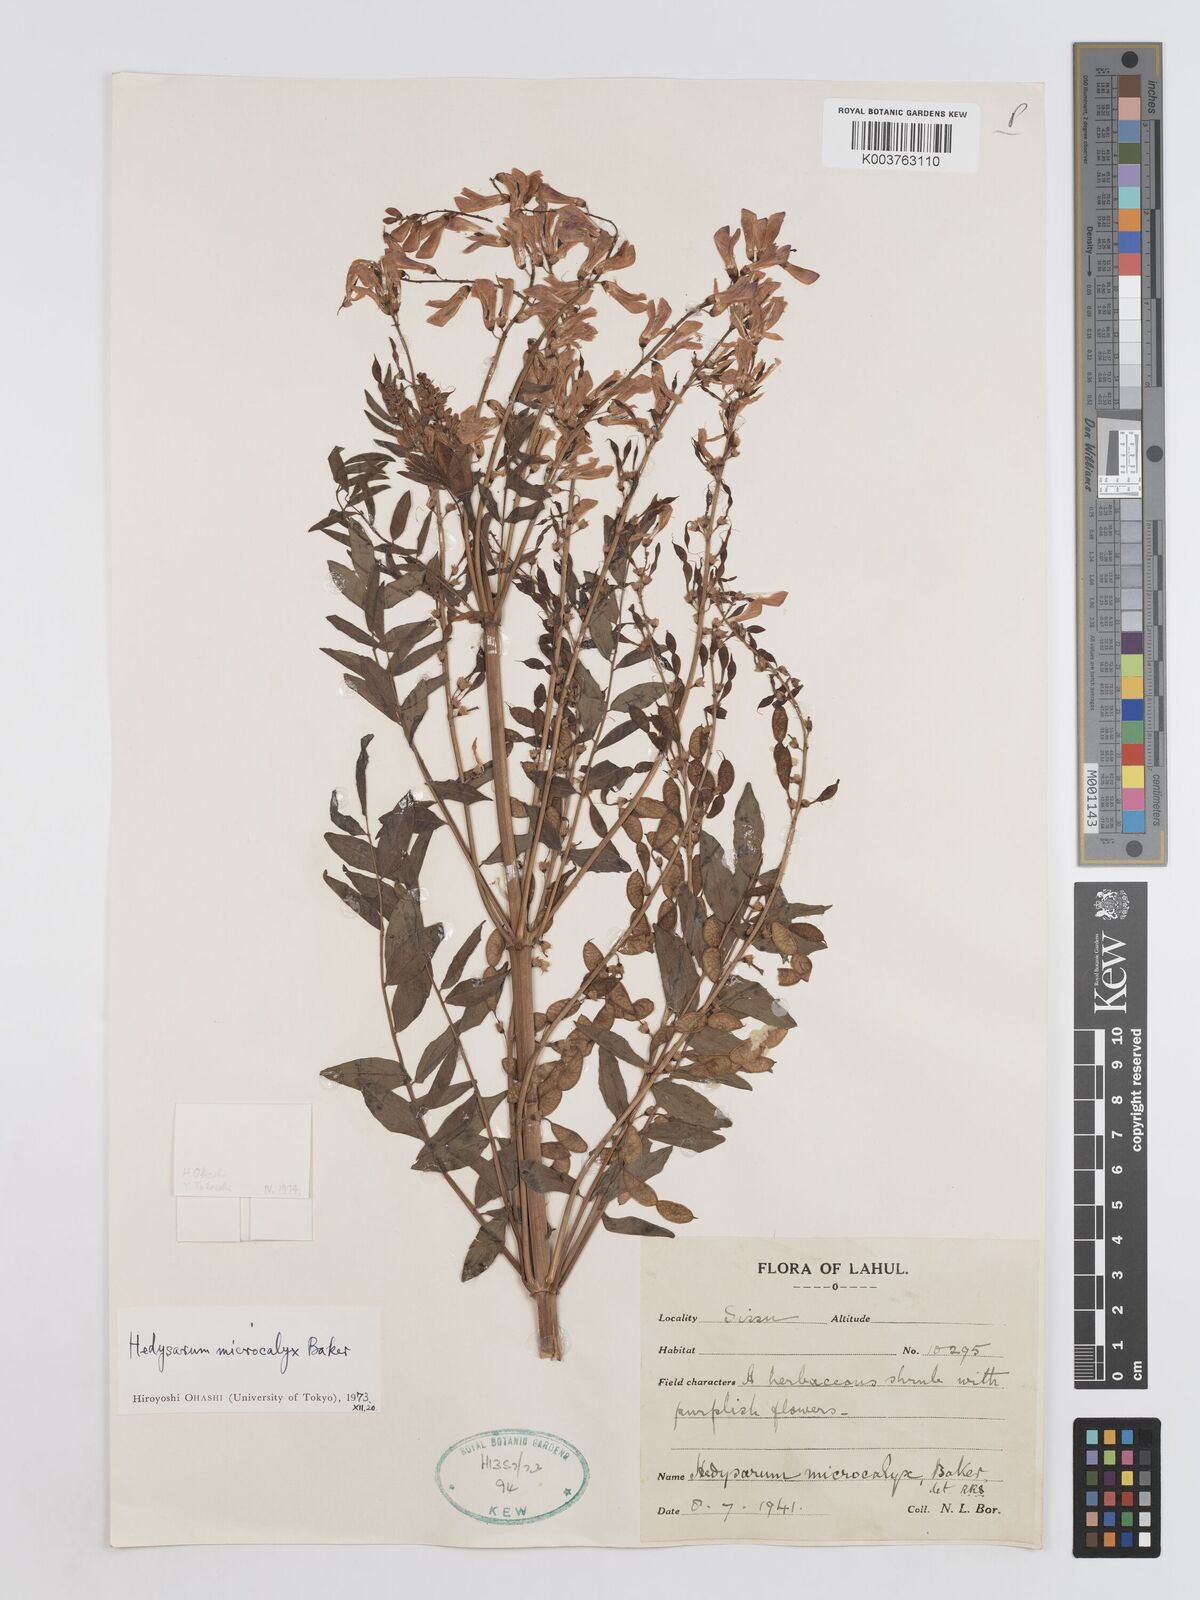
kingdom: Plantae
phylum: Tracheophyta
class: Magnoliopsida
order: Fabales
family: Fabaceae
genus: Hedysarum
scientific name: Hedysarum microcalyx
